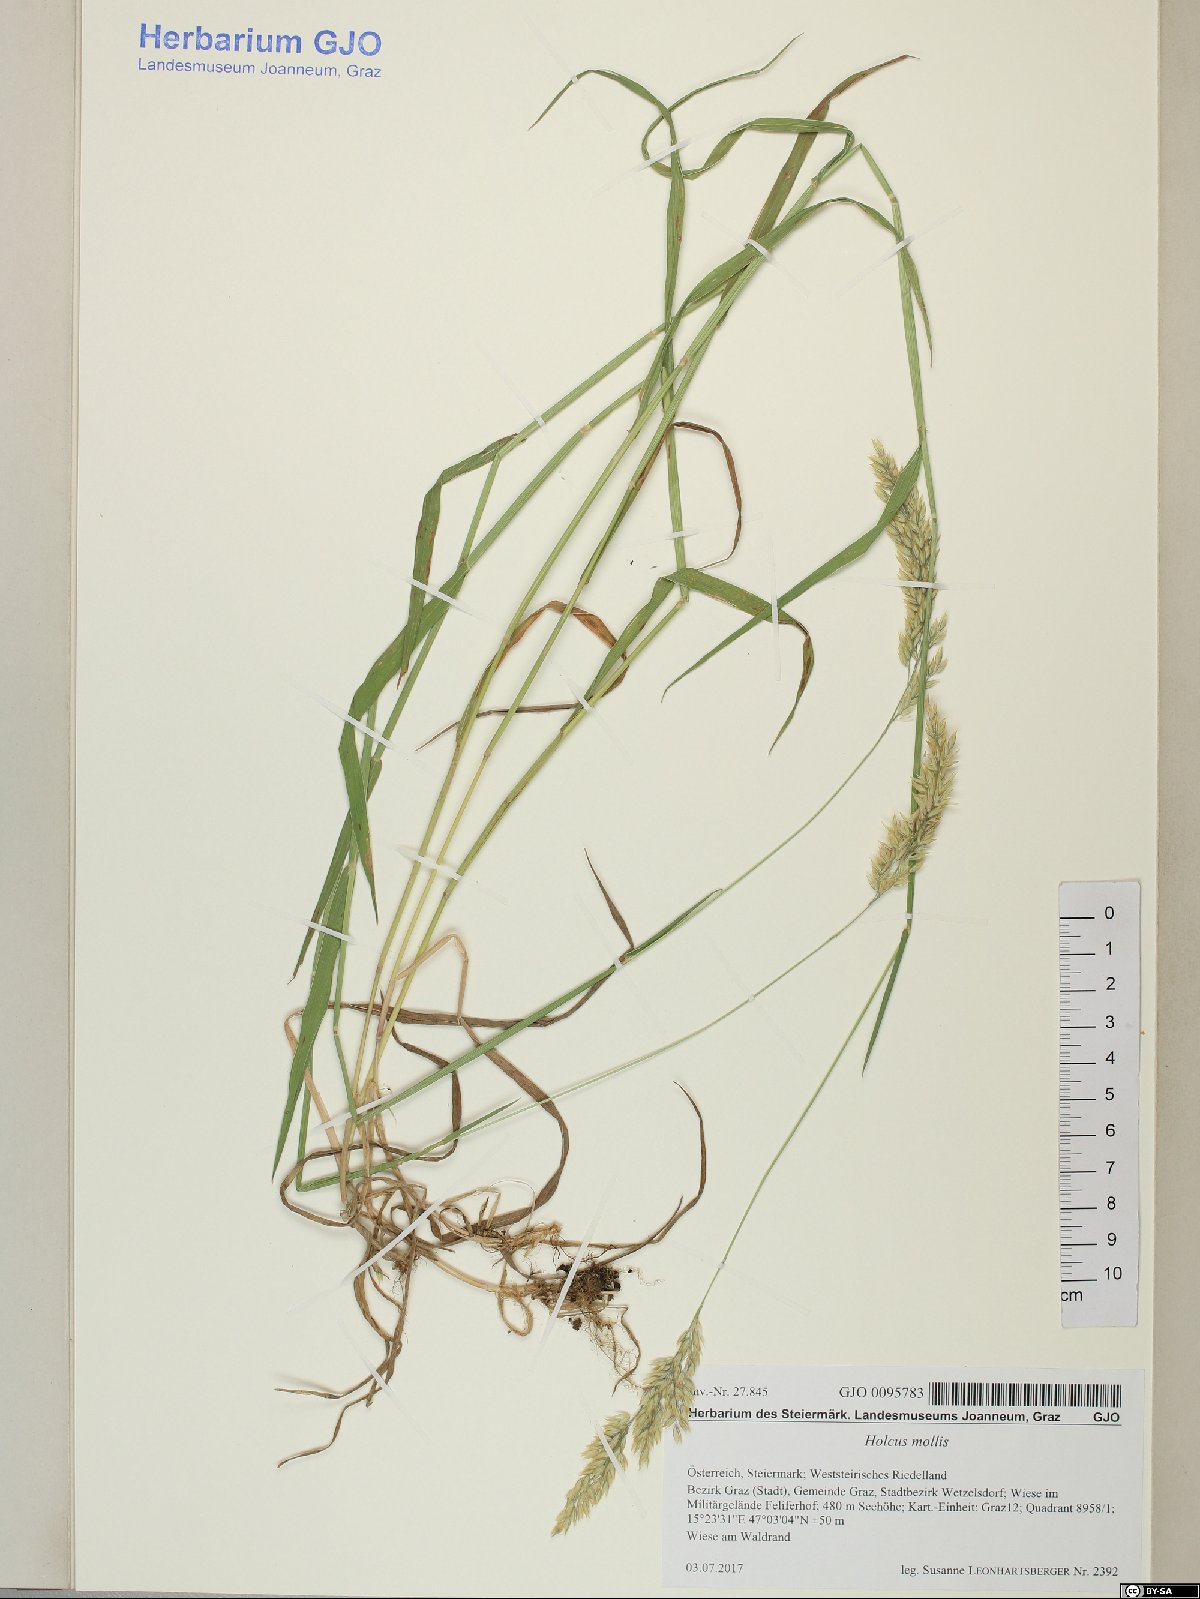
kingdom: Plantae
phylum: Tracheophyta
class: Liliopsida
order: Poales
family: Poaceae
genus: Holcus
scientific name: Holcus mollis
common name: Creeping velvetgrass
